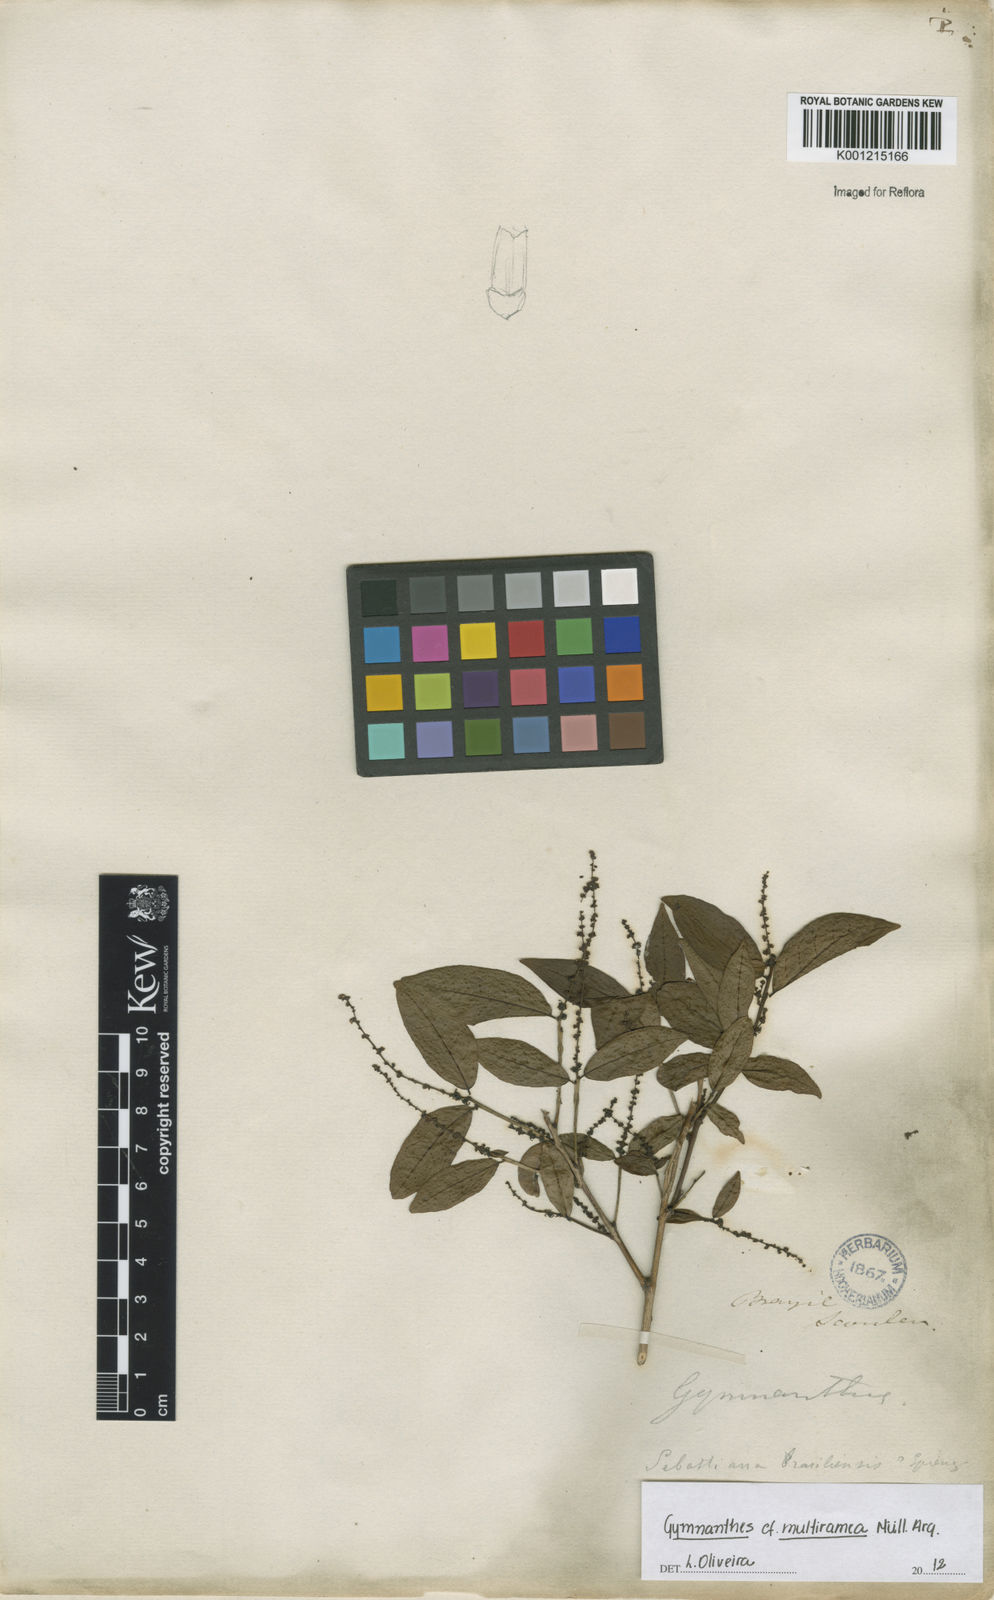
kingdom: Plantae
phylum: Tracheophyta
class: Magnoliopsida
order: Malpighiales
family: Euphorbiaceae
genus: Gymnanthes
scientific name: Gymnanthes
